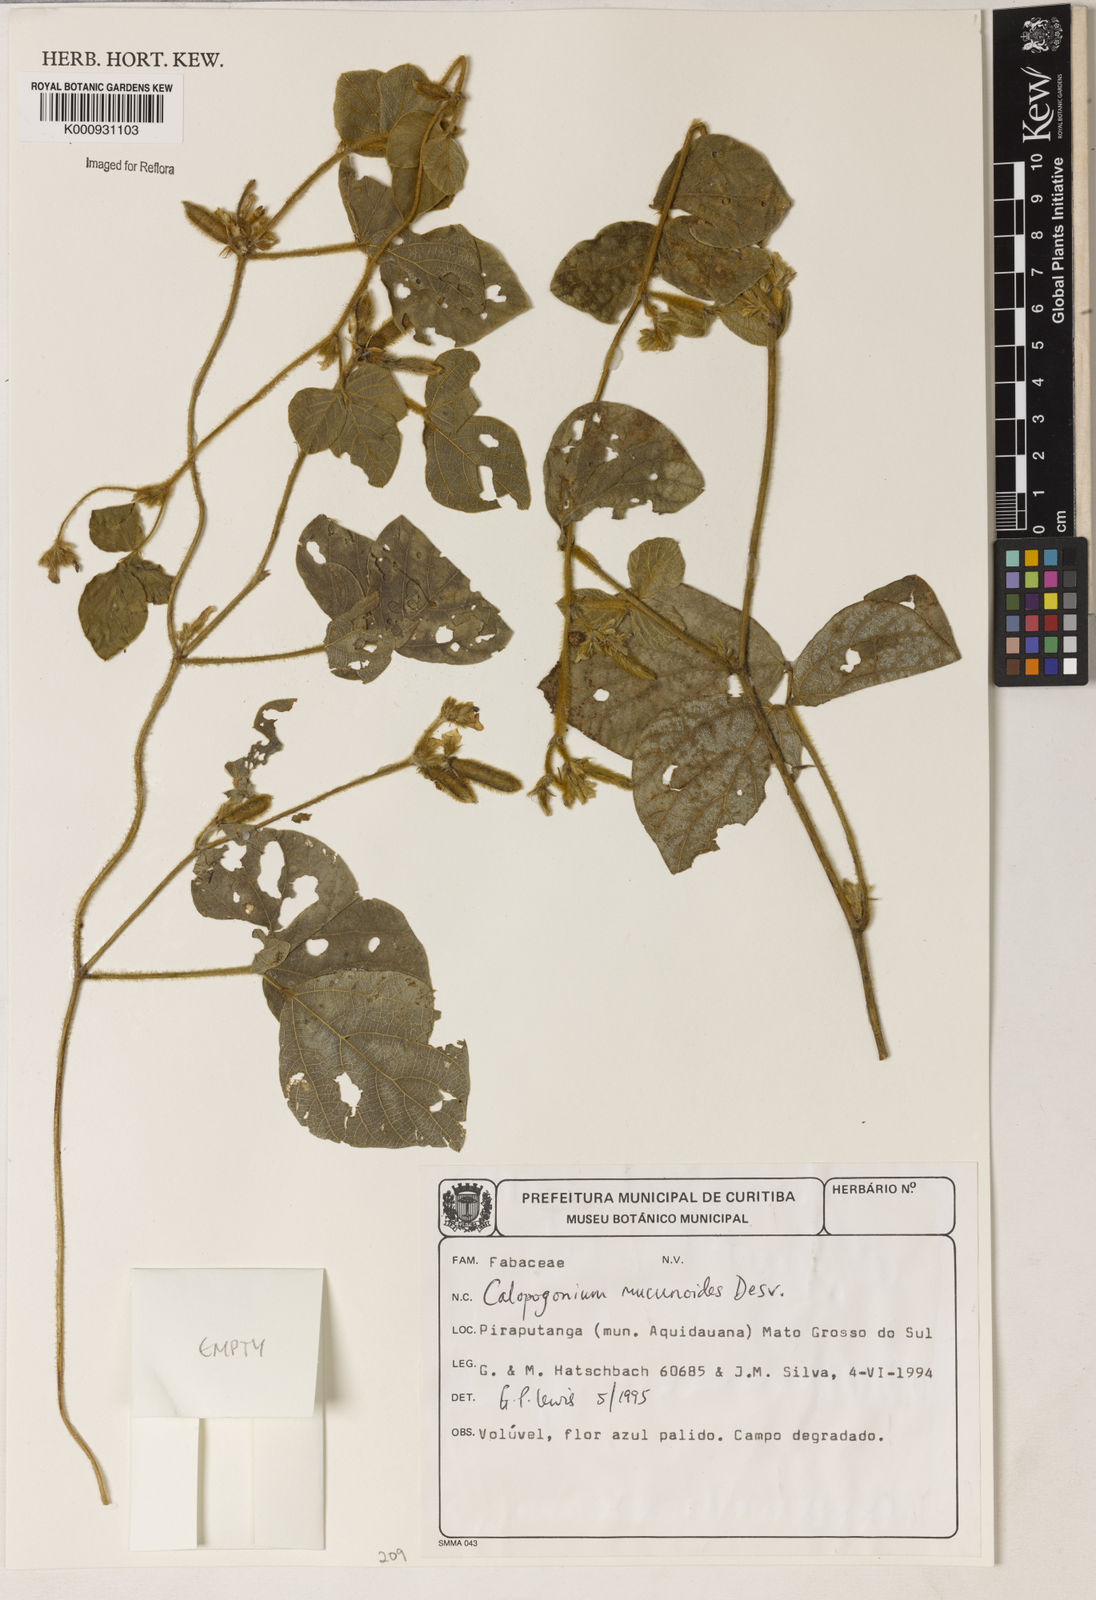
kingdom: Plantae
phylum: Tracheophyta
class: Magnoliopsida
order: Fabales
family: Fabaceae
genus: Calopogonium
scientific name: Calopogonium mucunoides
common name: Calopo
